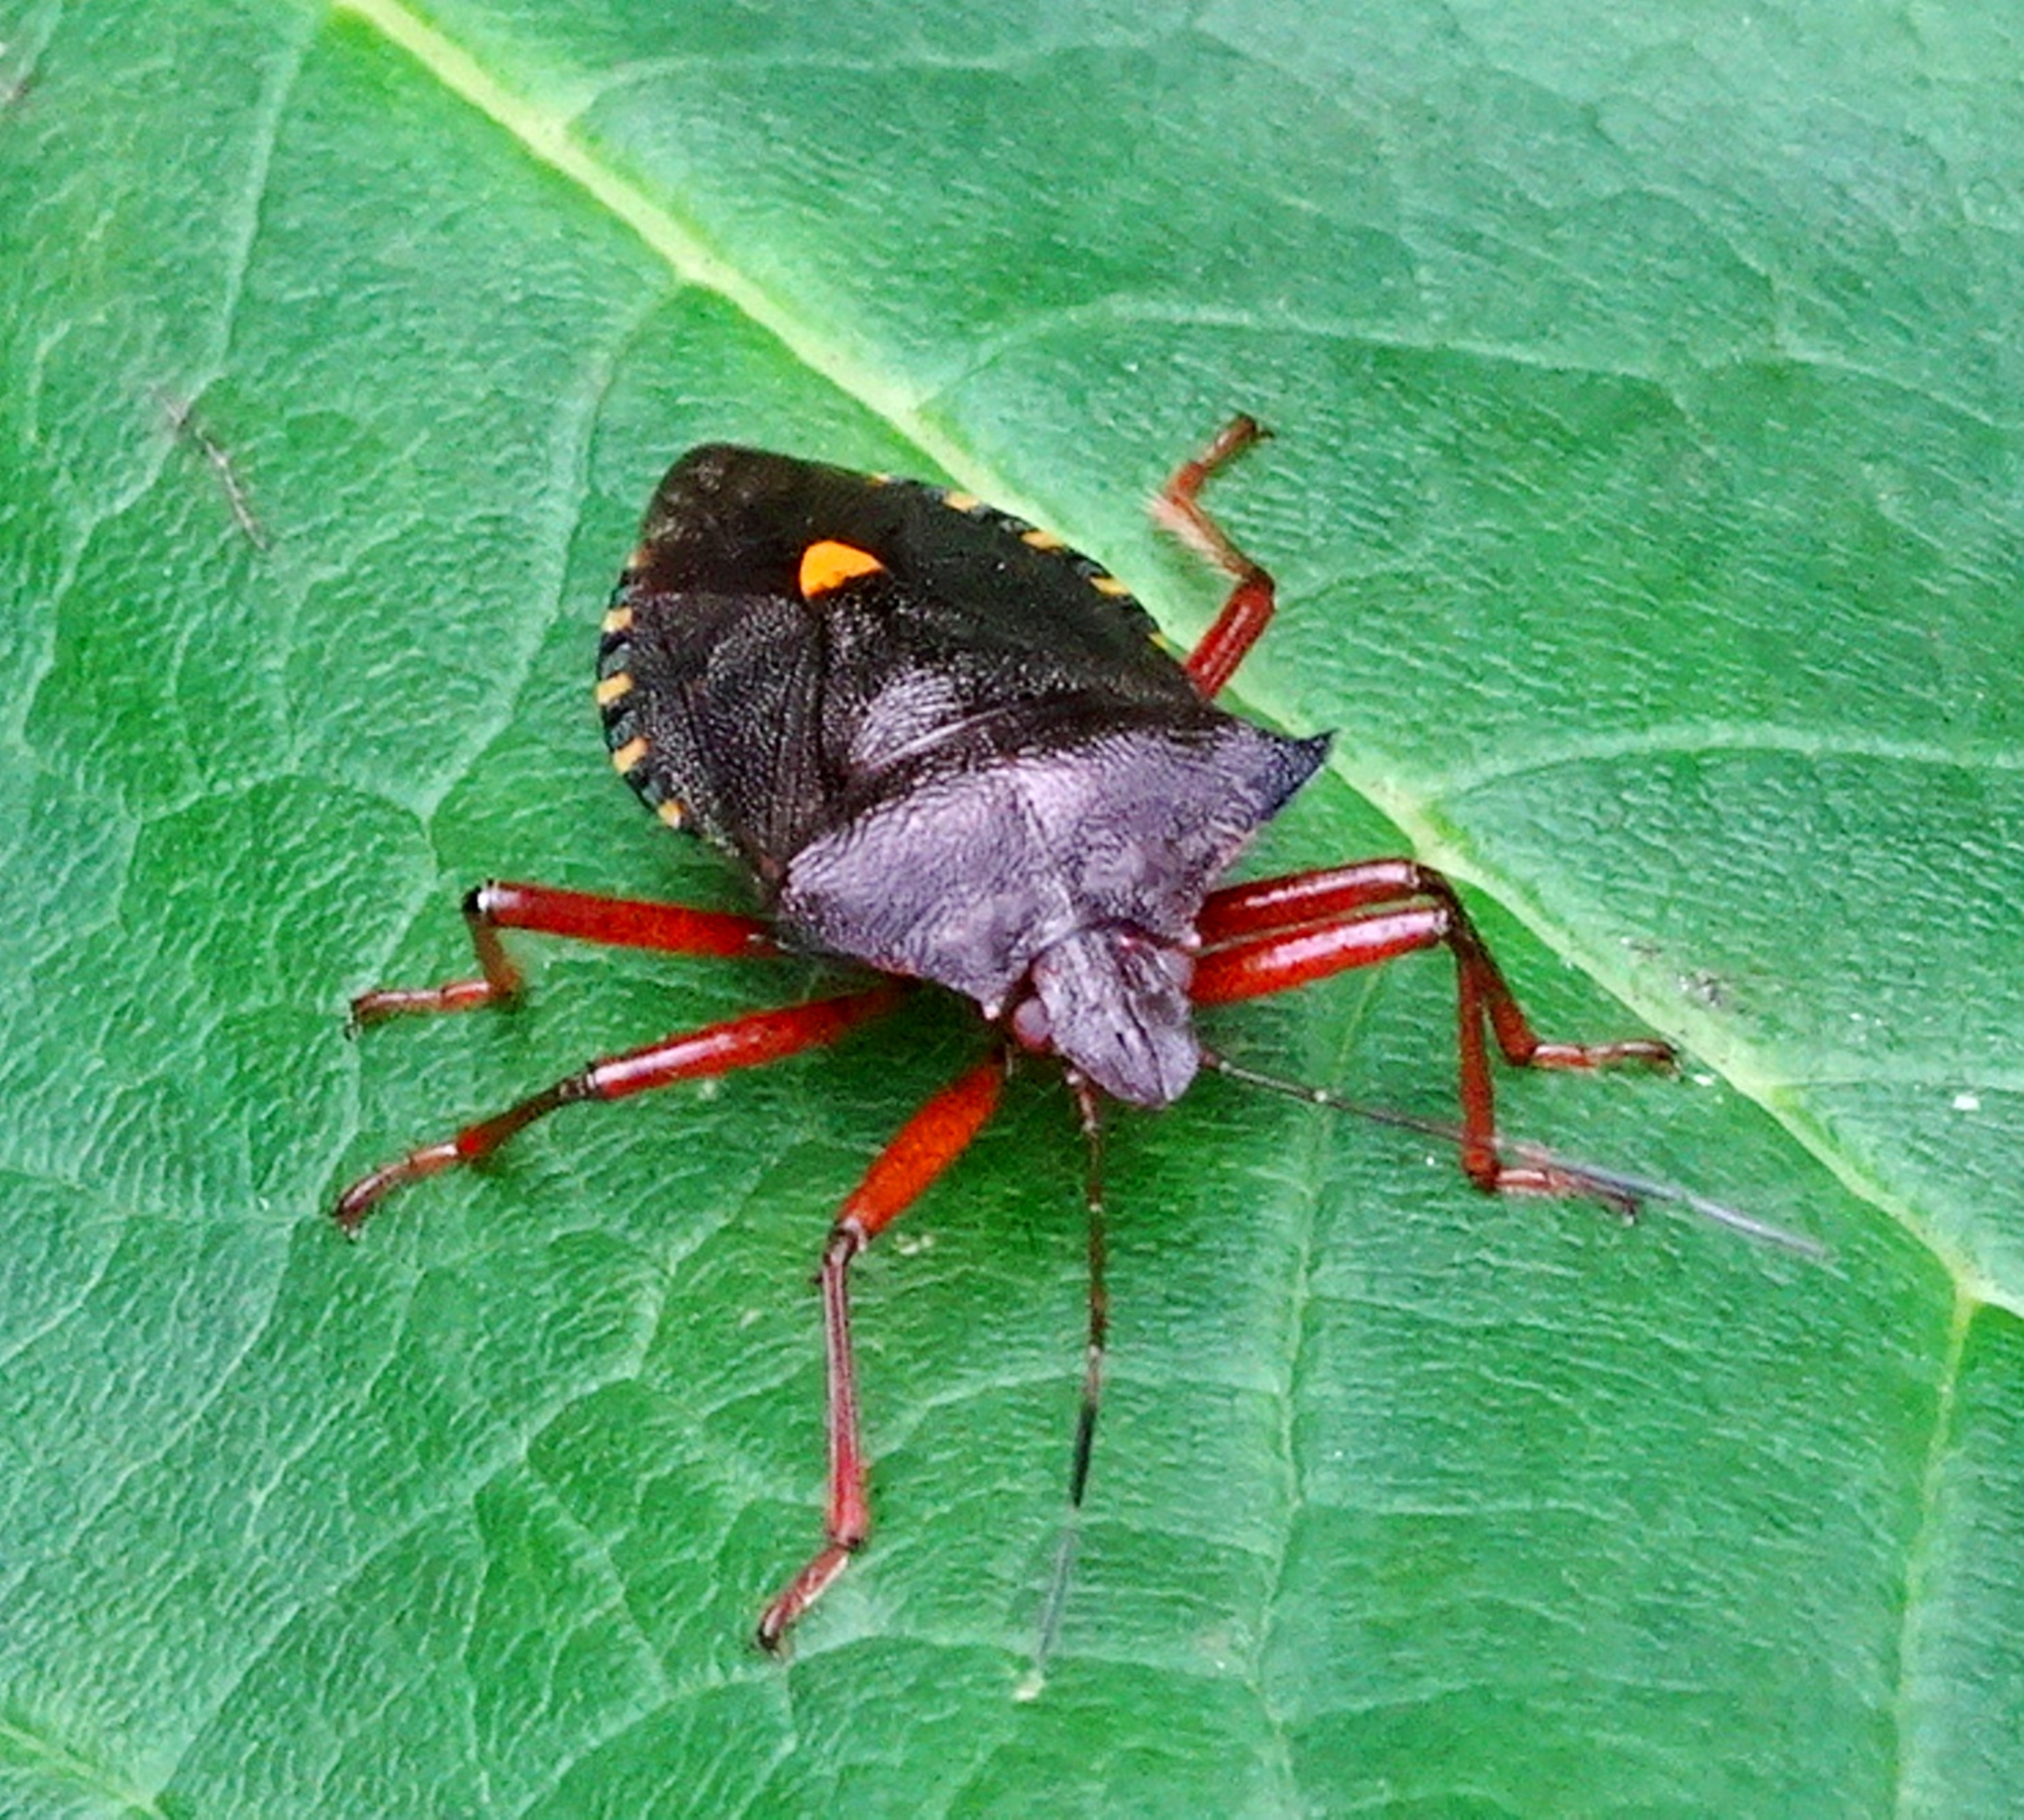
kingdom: Animalia
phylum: Arthropoda
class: Insecta
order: Hemiptera
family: Pentatomidae
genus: Pentatoma
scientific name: Pentatoma rufipes
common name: Rødbenet bredtæge
